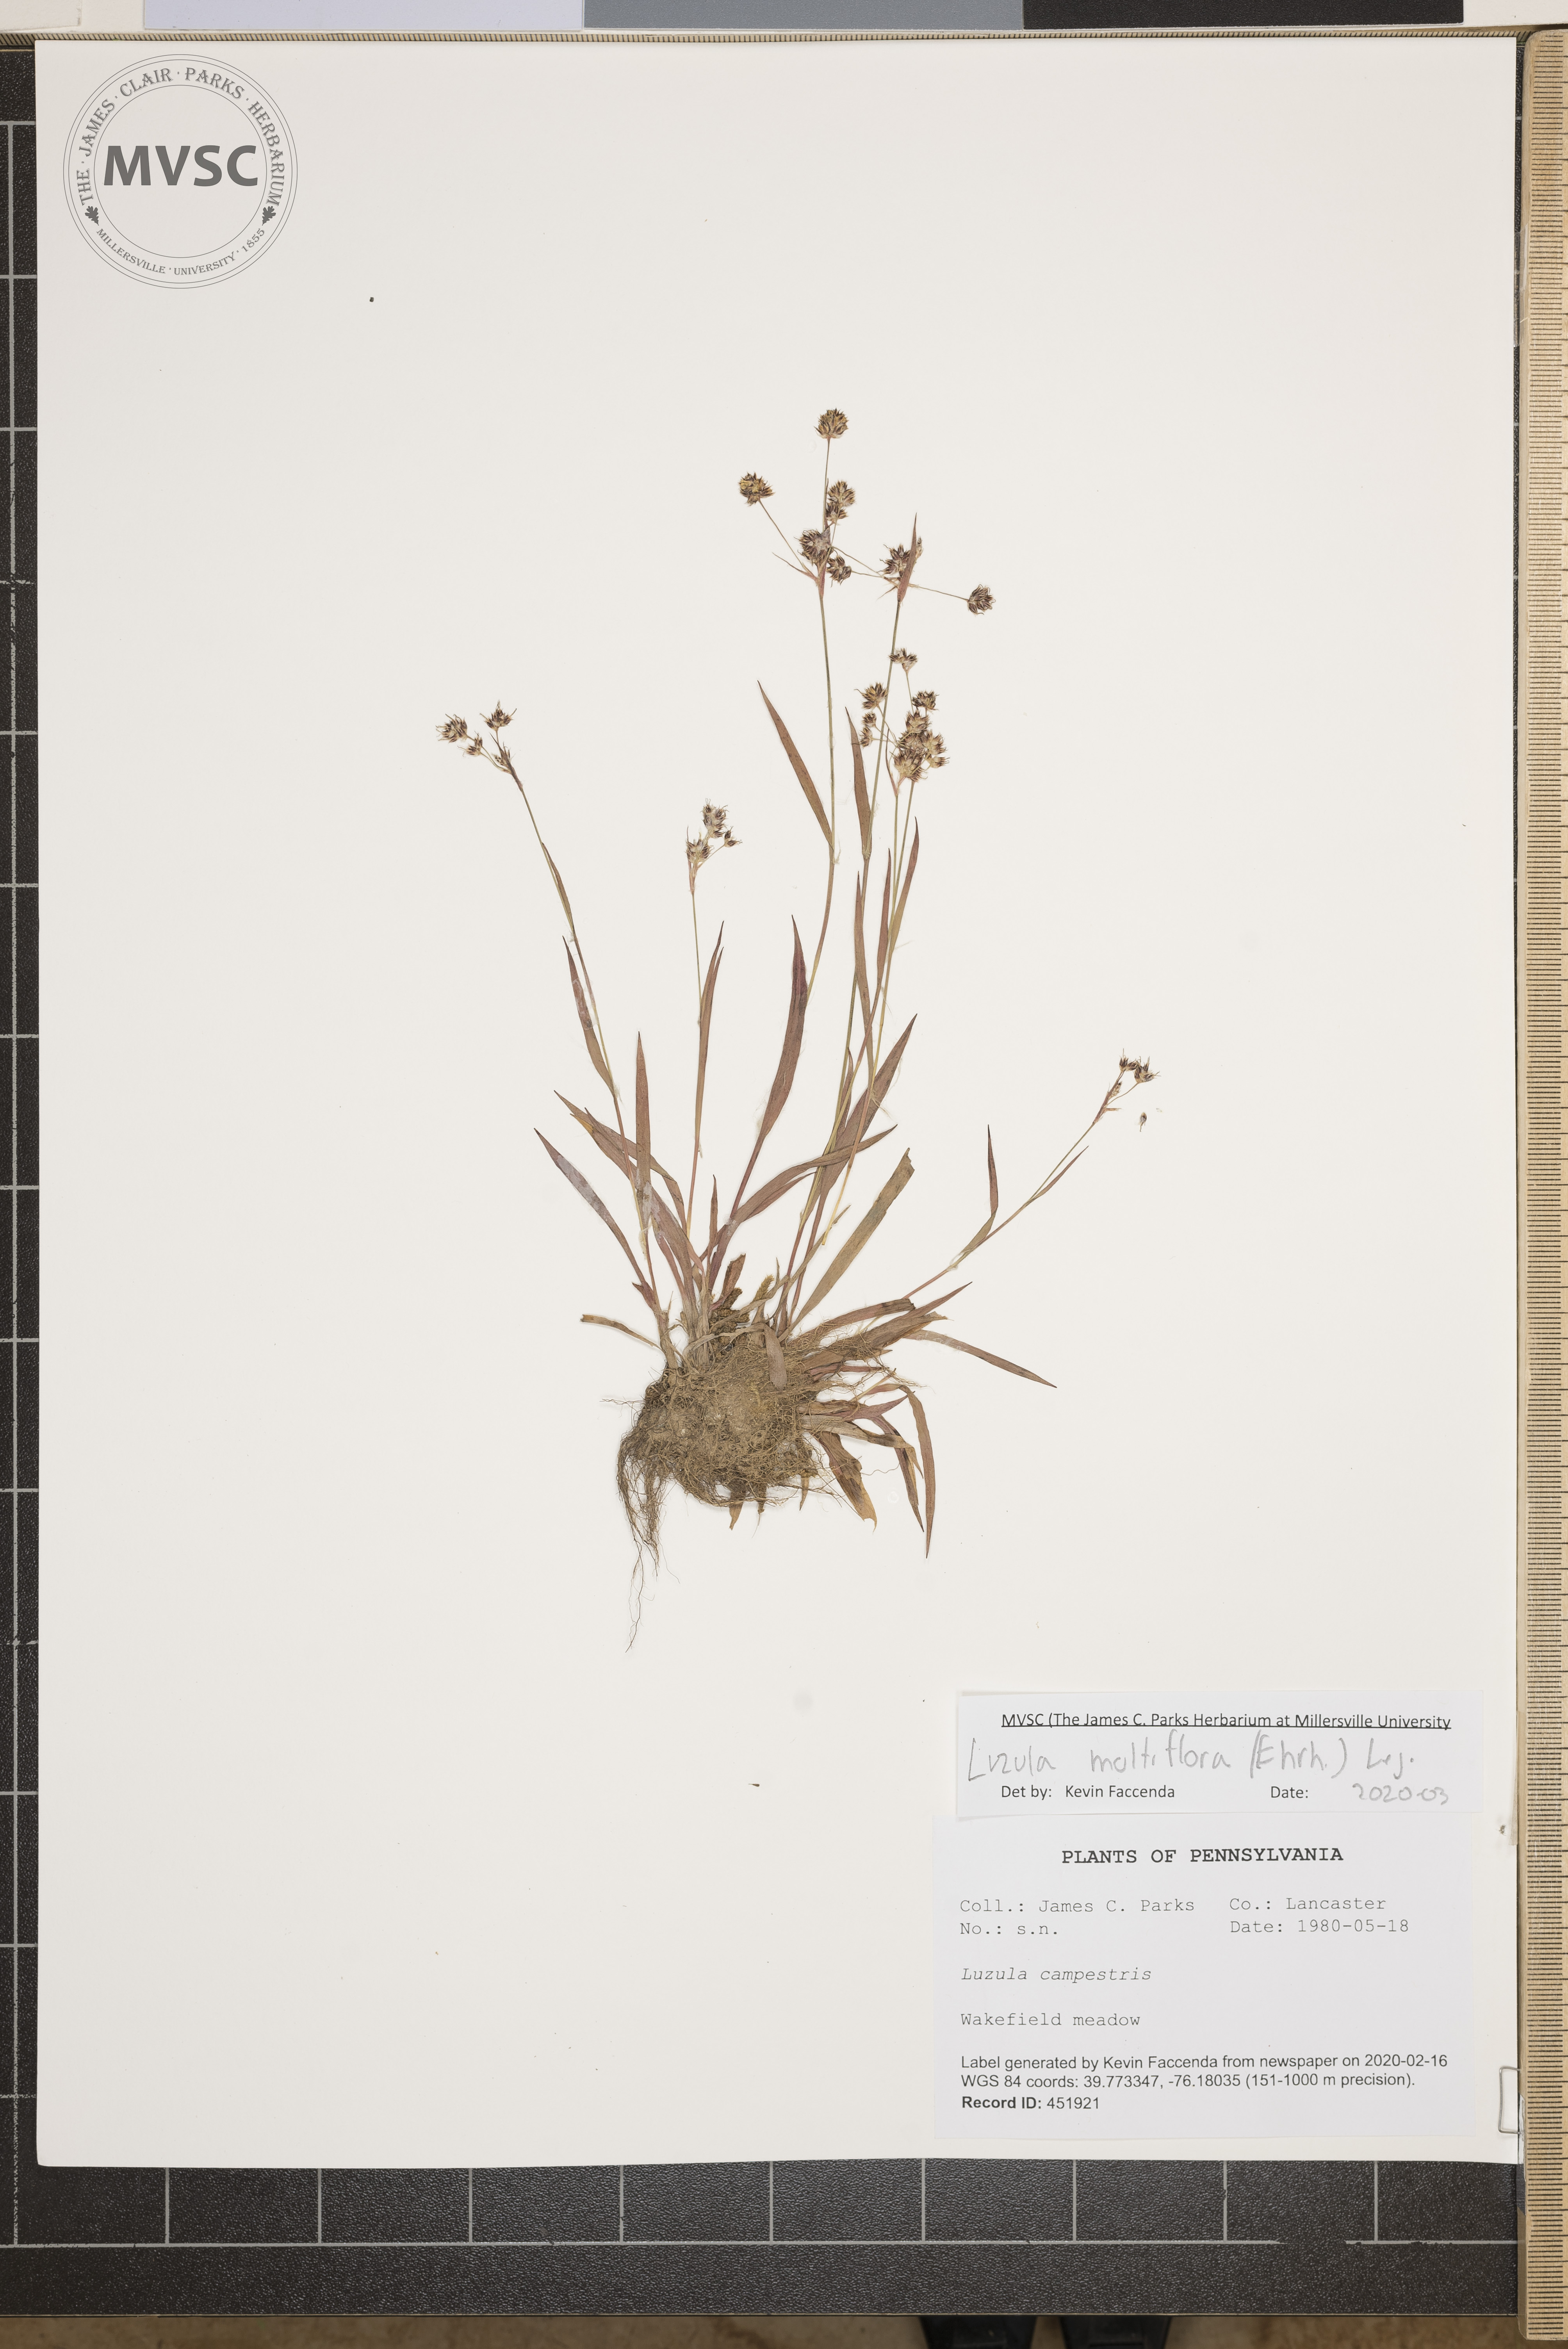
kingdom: Plantae
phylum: Tracheophyta
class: Liliopsida
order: Poales
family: Juncaceae
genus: Luzula
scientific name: Luzula multiflora
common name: Heath wood-rush
